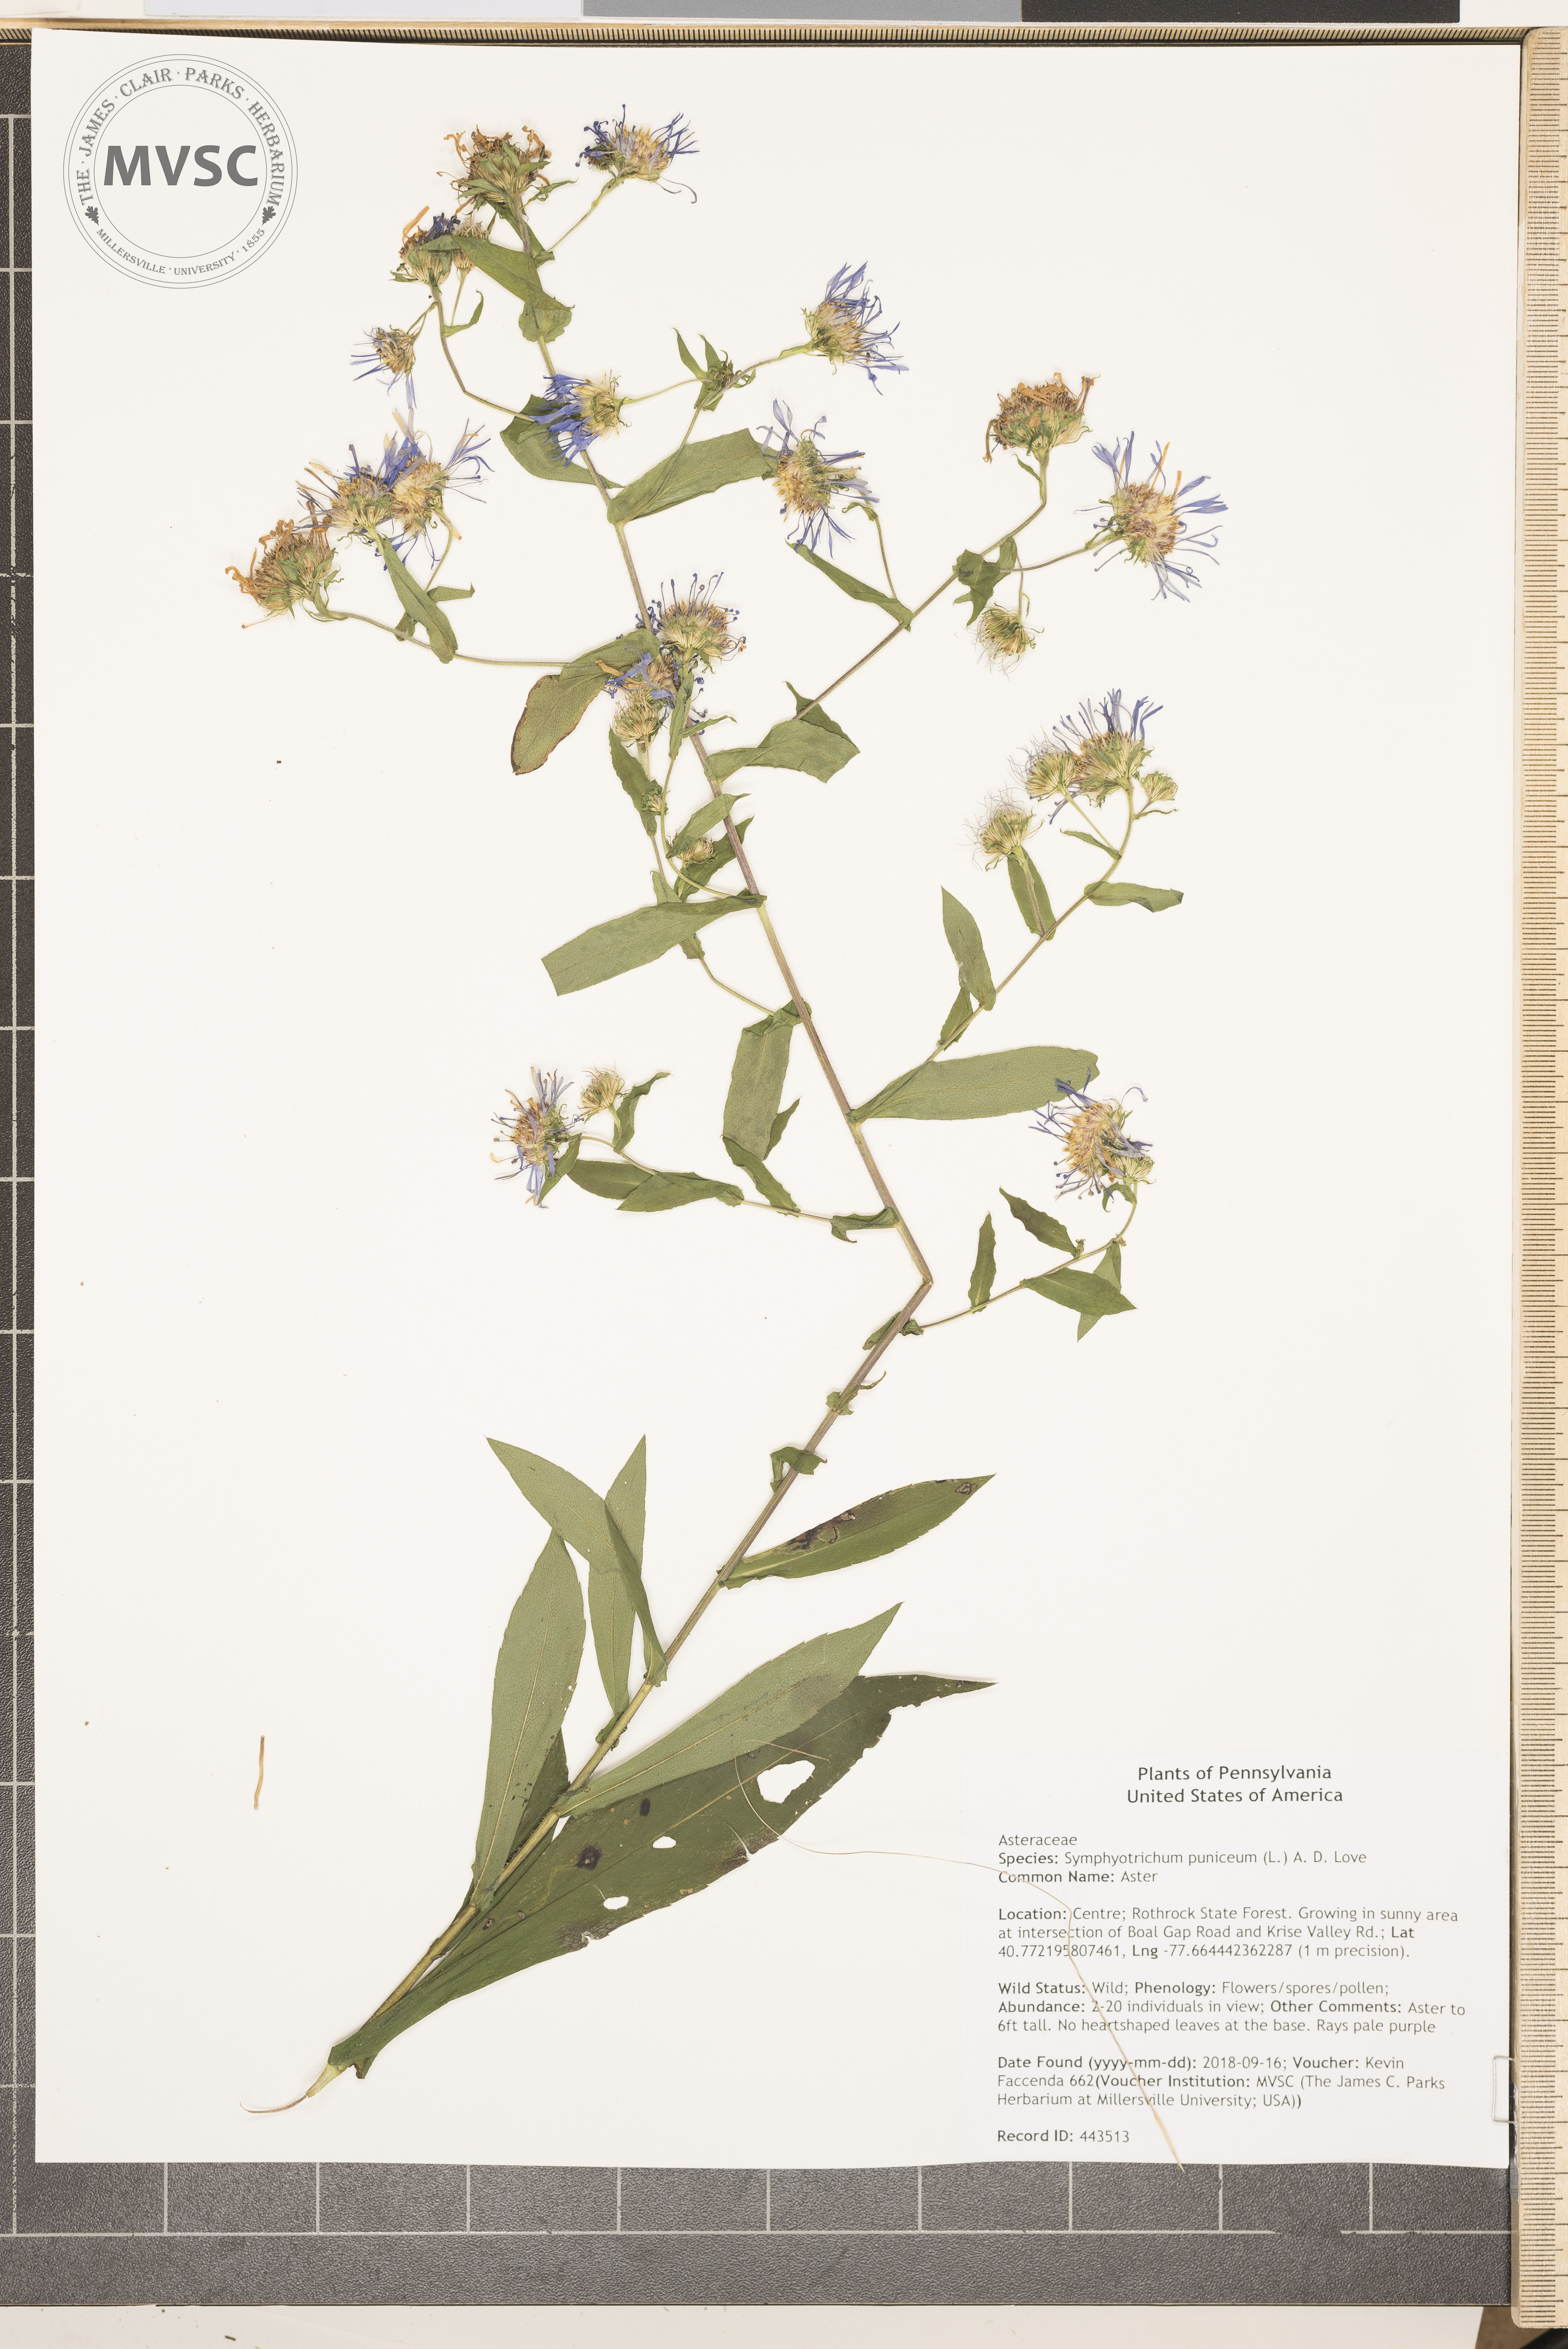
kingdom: Plantae
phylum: Tracheophyta
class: Magnoliopsida
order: Asterales
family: Asteraceae
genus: Symphyotrichum
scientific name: Symphyotrichum puniceum
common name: Aster
